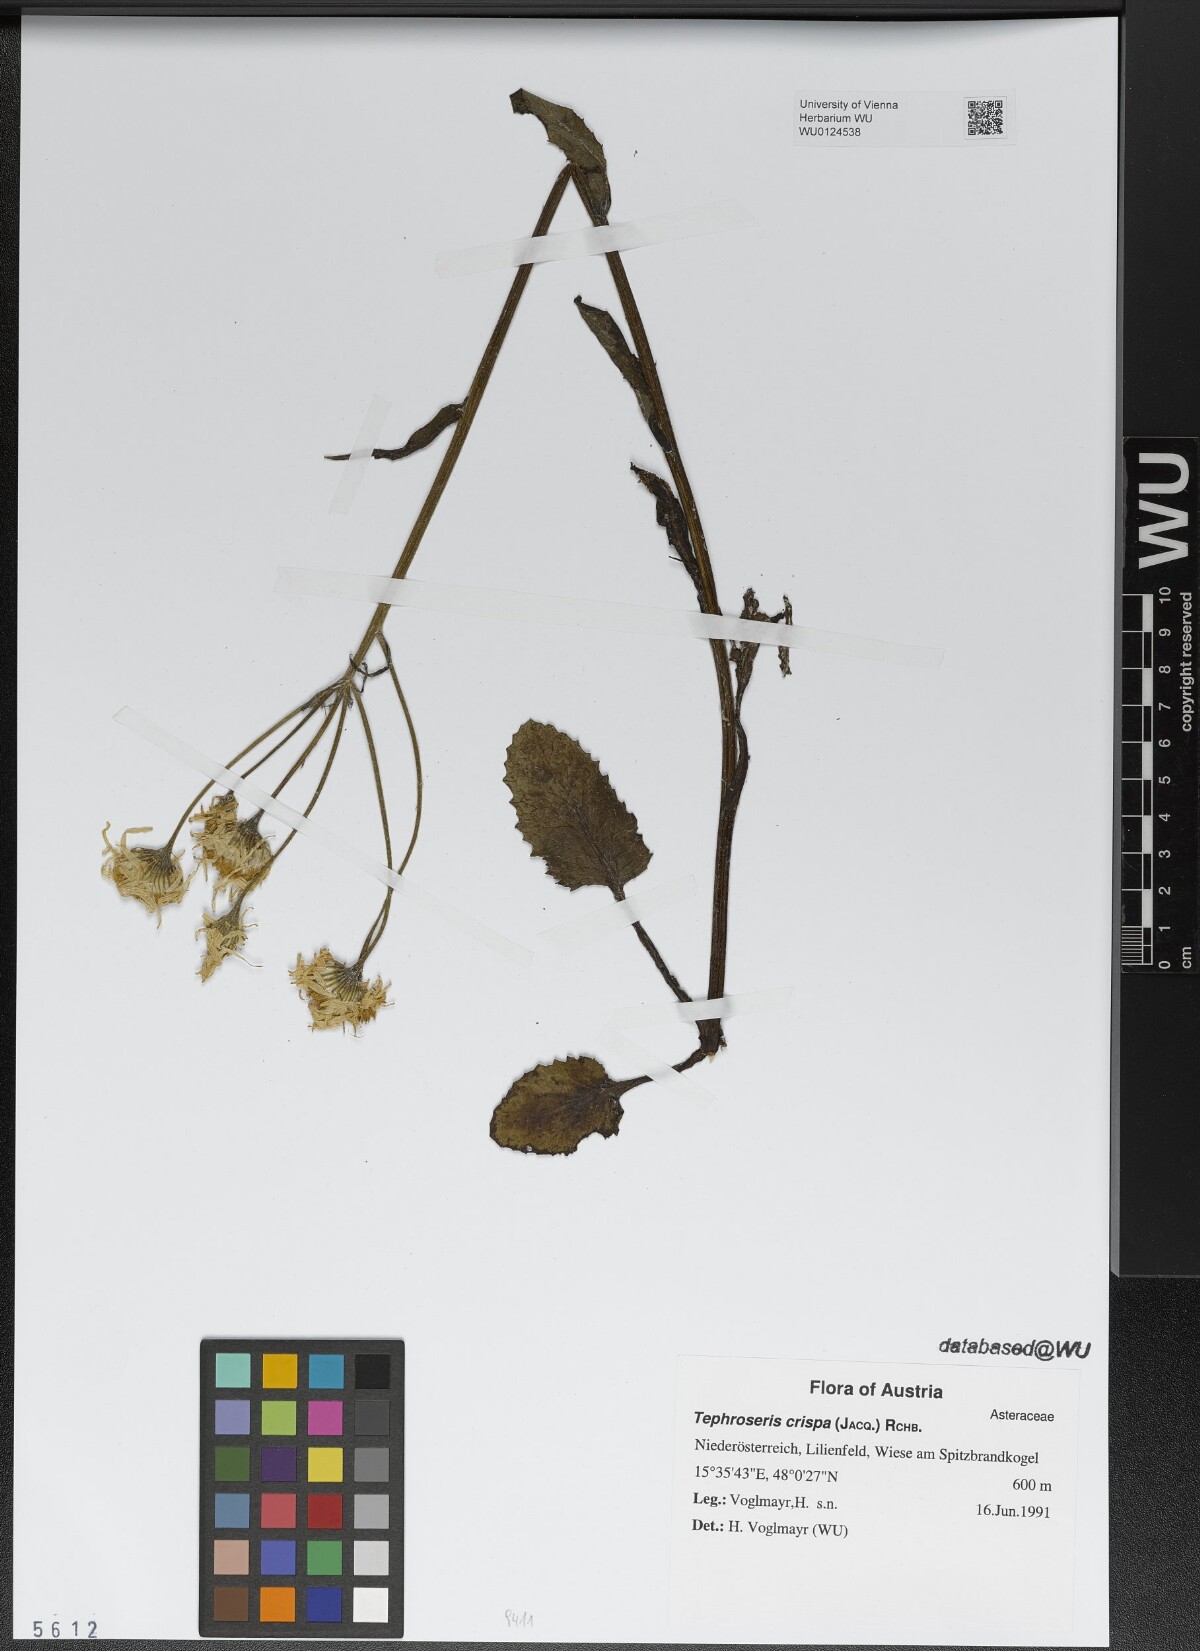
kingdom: Plantae
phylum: Tracheophyta
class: Magnoliopsida
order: Asterales
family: Asteraceae
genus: Tephroseris
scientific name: Tephroseris crispa
